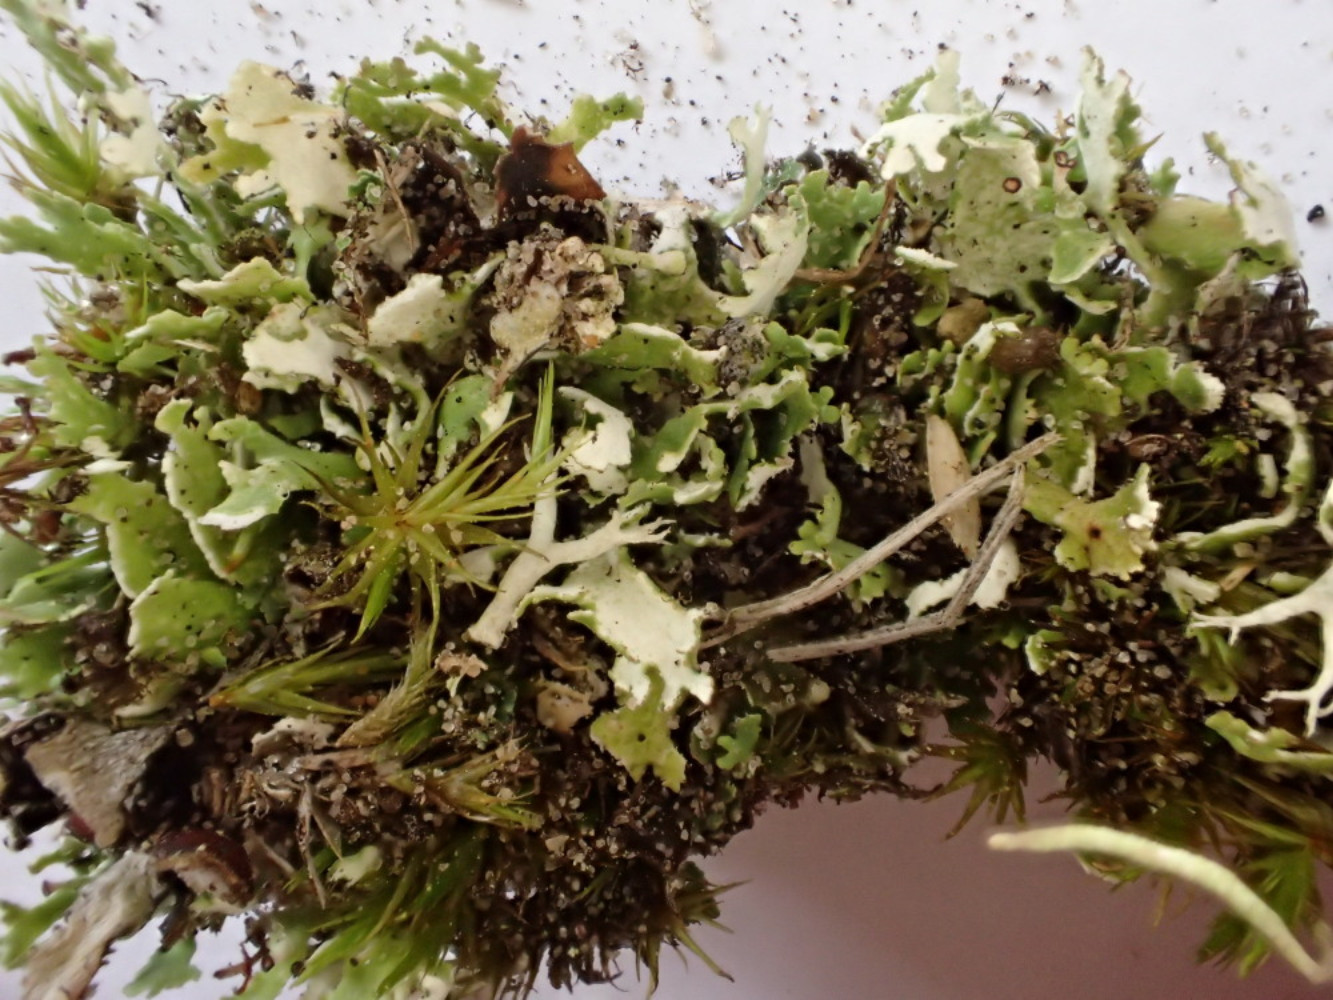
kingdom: Fungi
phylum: Ascomycota
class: Lecanoromycetes
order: Lecanorales
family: Cladoniaceae
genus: Cladonia
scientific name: Cladonia foliacea
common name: fliget bægerlav
